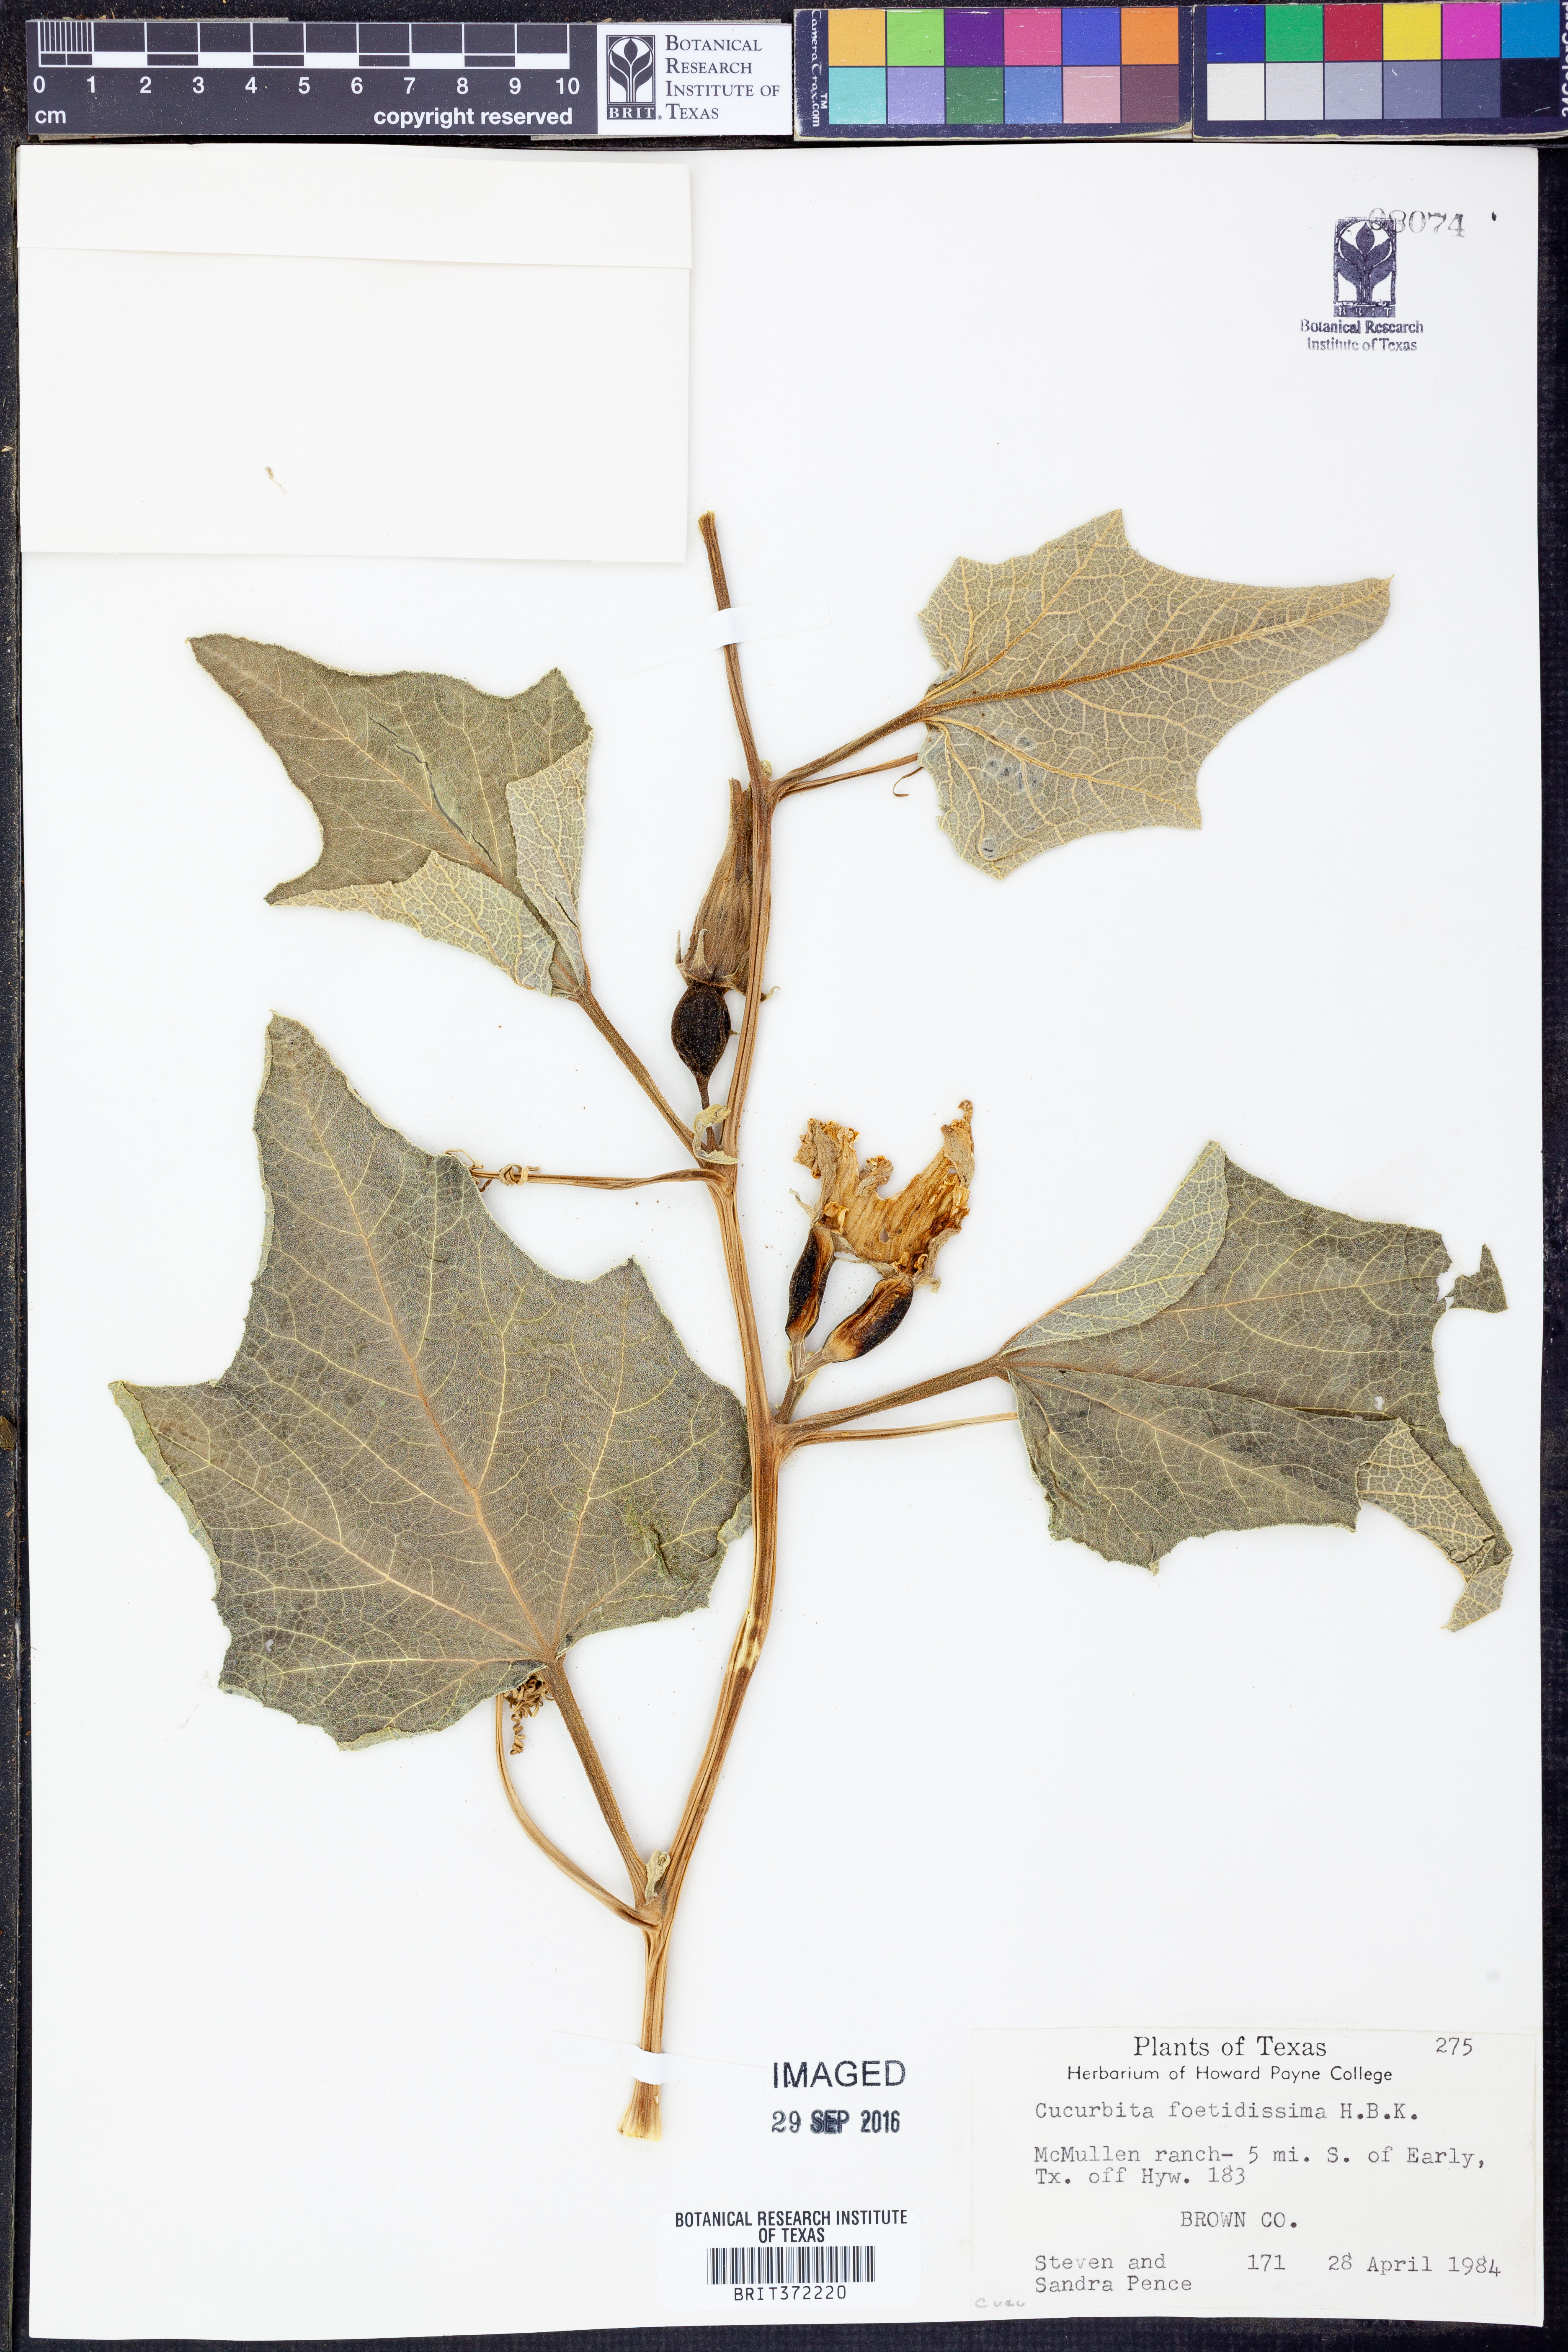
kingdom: Plantae
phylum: Tracheophyta
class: Magnoliopsida
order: Cucurbitales
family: Cucurbitaceae
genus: Cucurbita
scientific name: Cucurbita foetidissima
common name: Buffalo gourd
